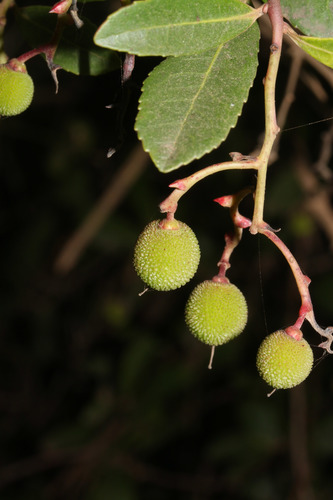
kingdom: Plantae
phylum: Tracheophyta
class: Magnoliopsida
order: Ericales
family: Ericaceae
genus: Arbutus
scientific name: Arbutus unedo
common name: Strawberry-tree
